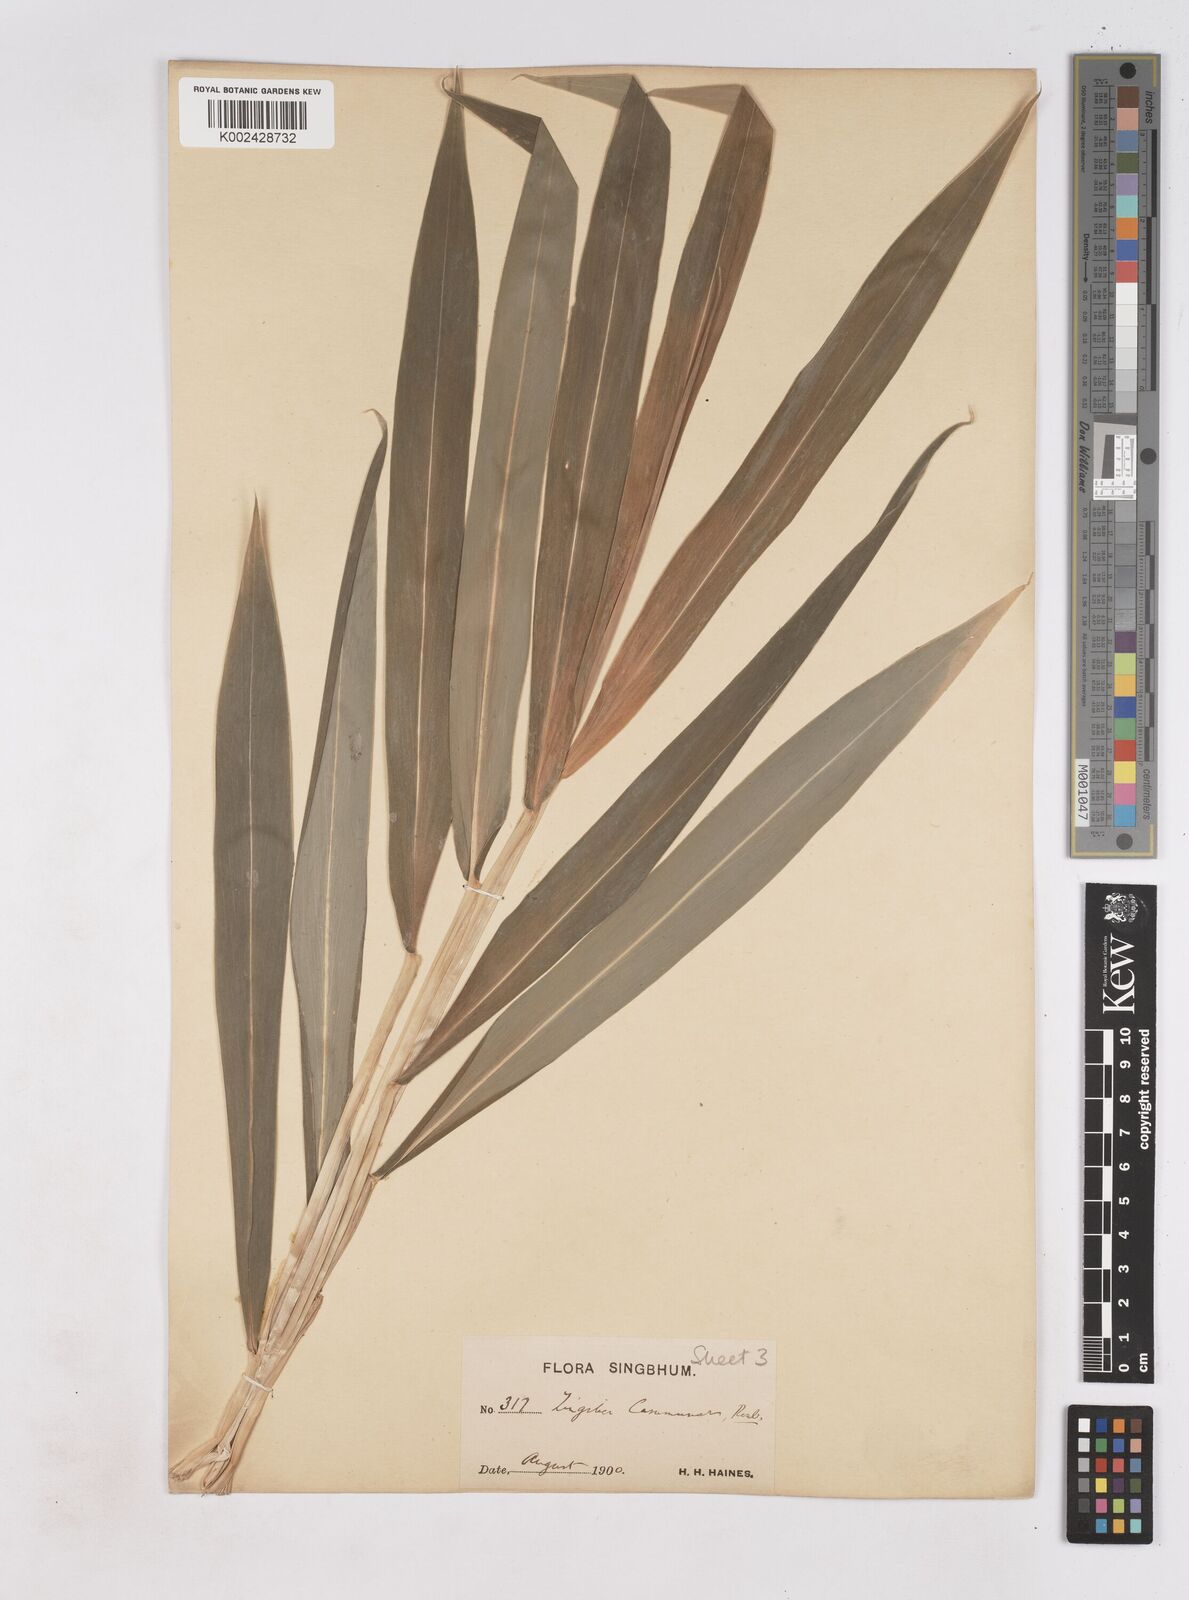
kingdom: Plantae
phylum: Tracheophyta
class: Liliopsida
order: Zingiberales
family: Zingiberaceae
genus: Zingiber
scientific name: Zingiber montanum
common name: Bengal ginger
